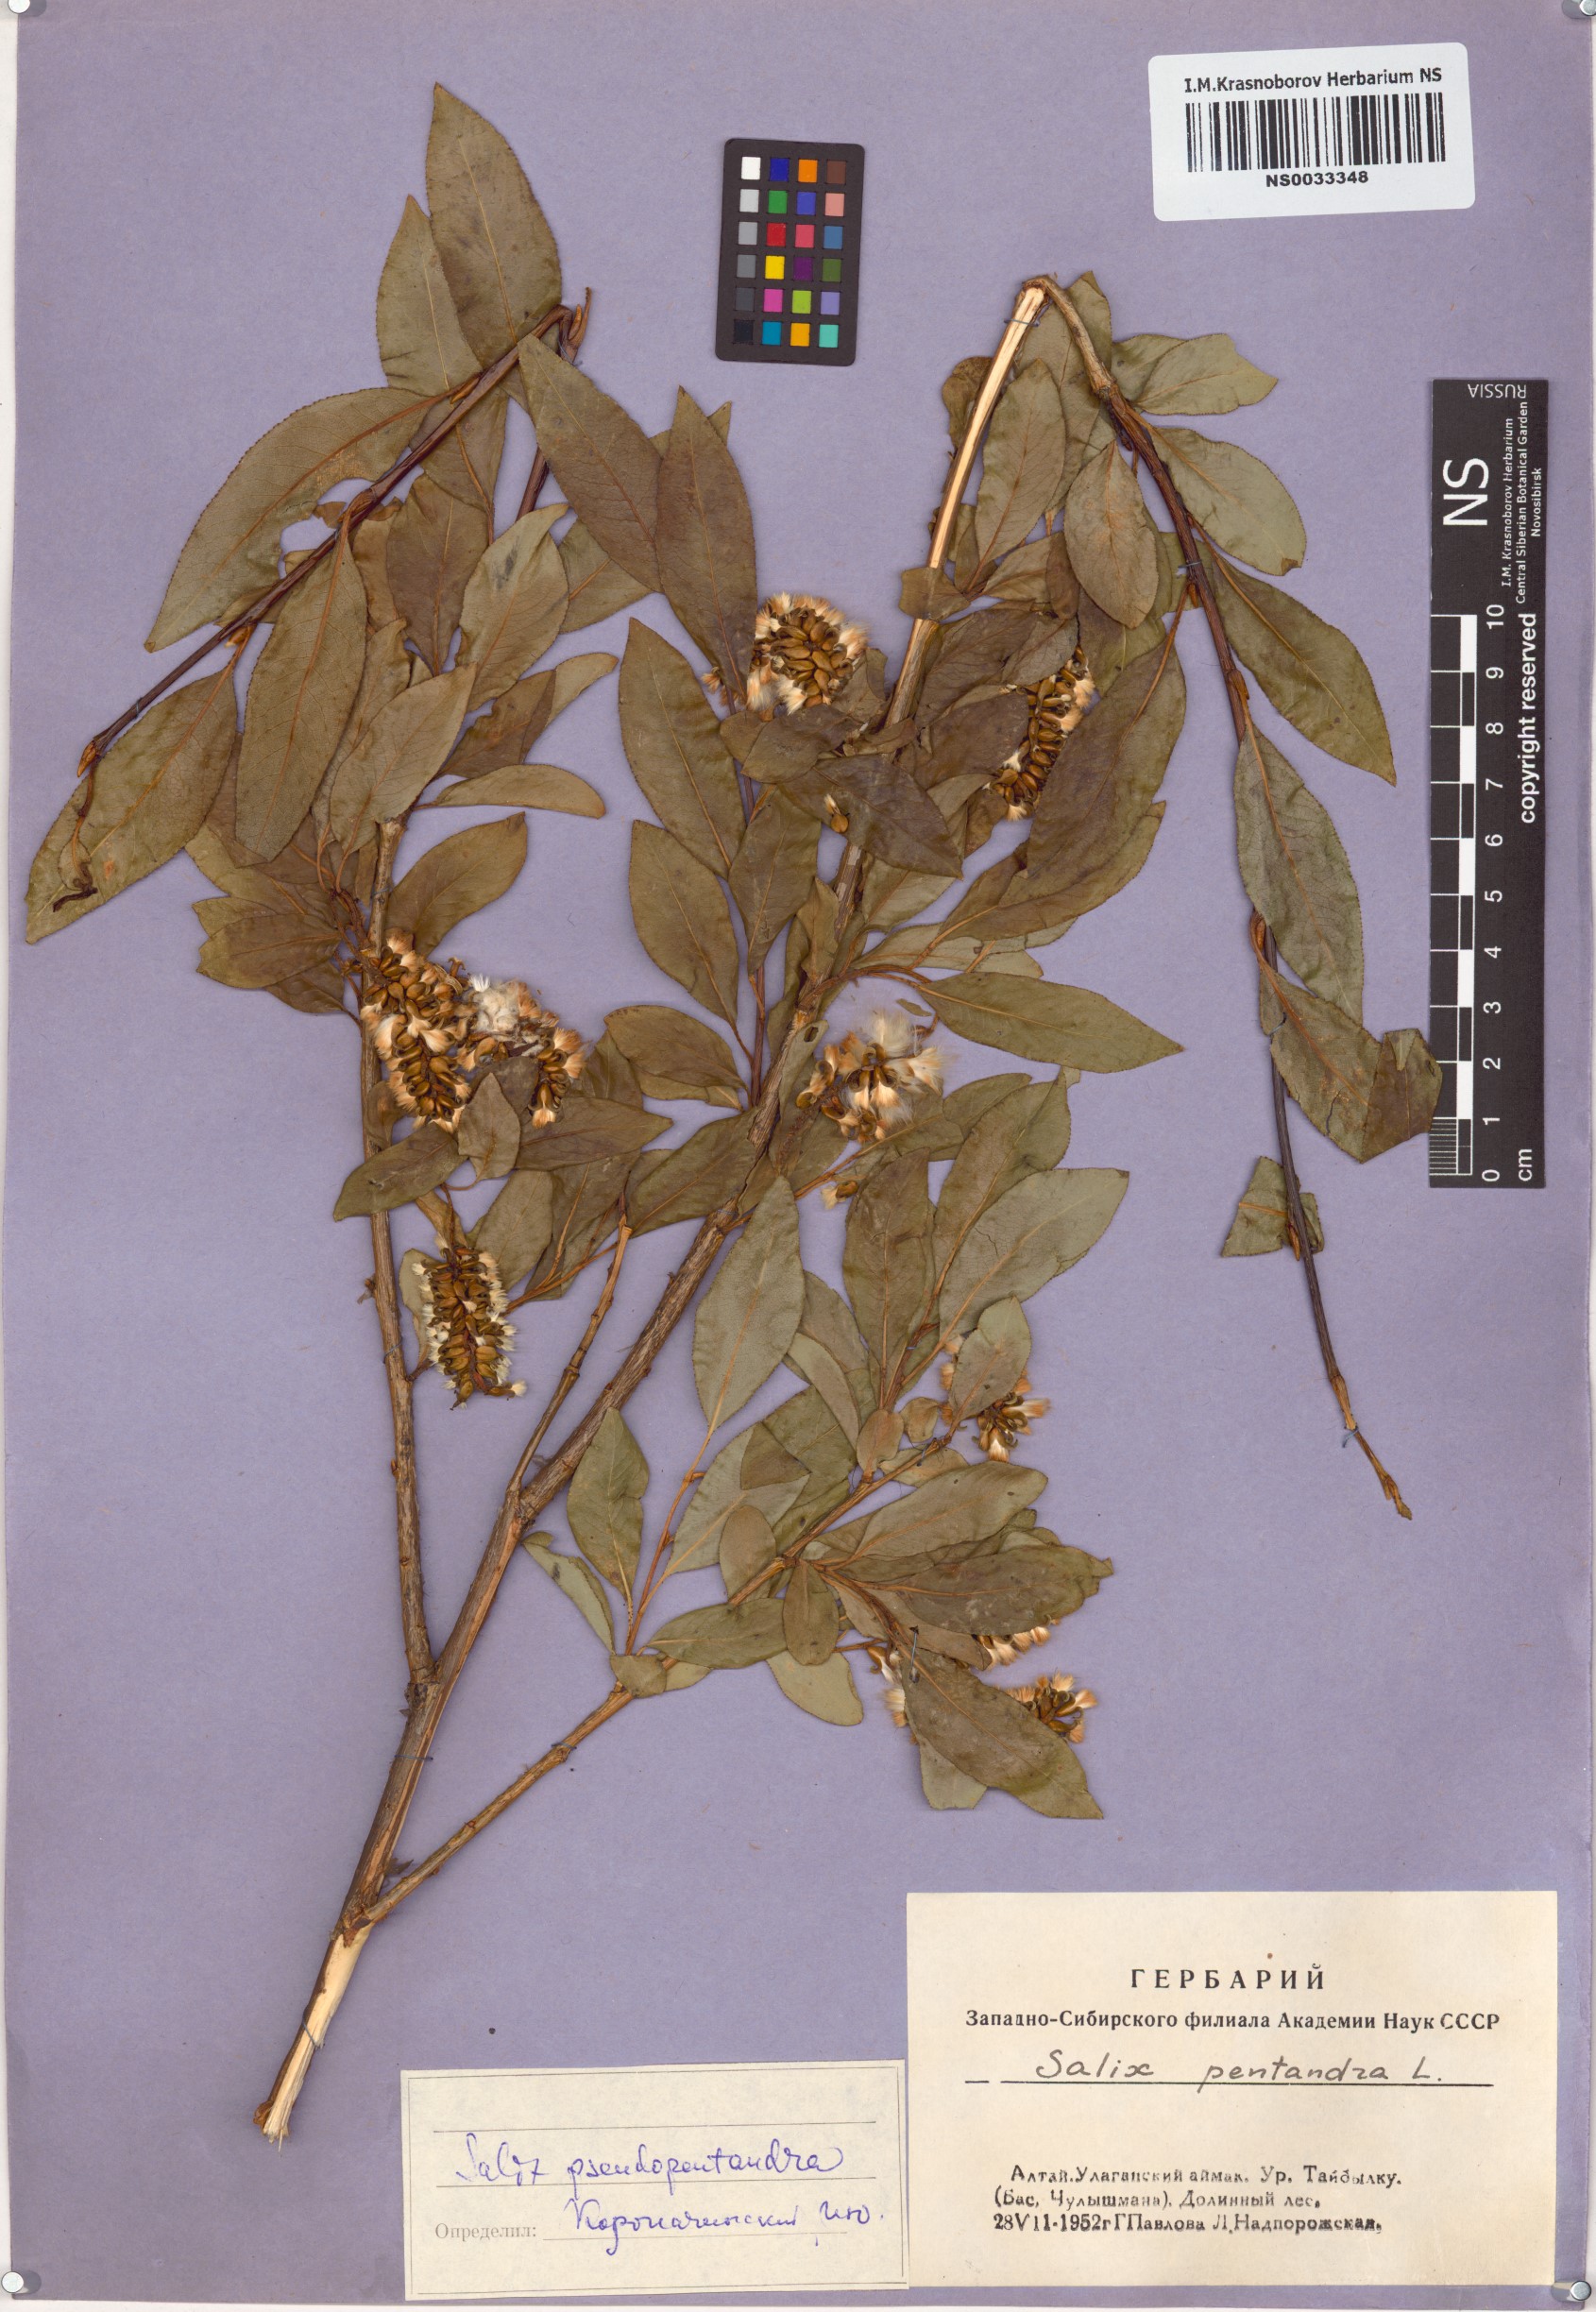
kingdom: Plantae
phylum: Tracheophyta
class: Magnoliopsida
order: Malpighiales
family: Salicaceae
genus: Salix
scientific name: Salix pseudopentandra
